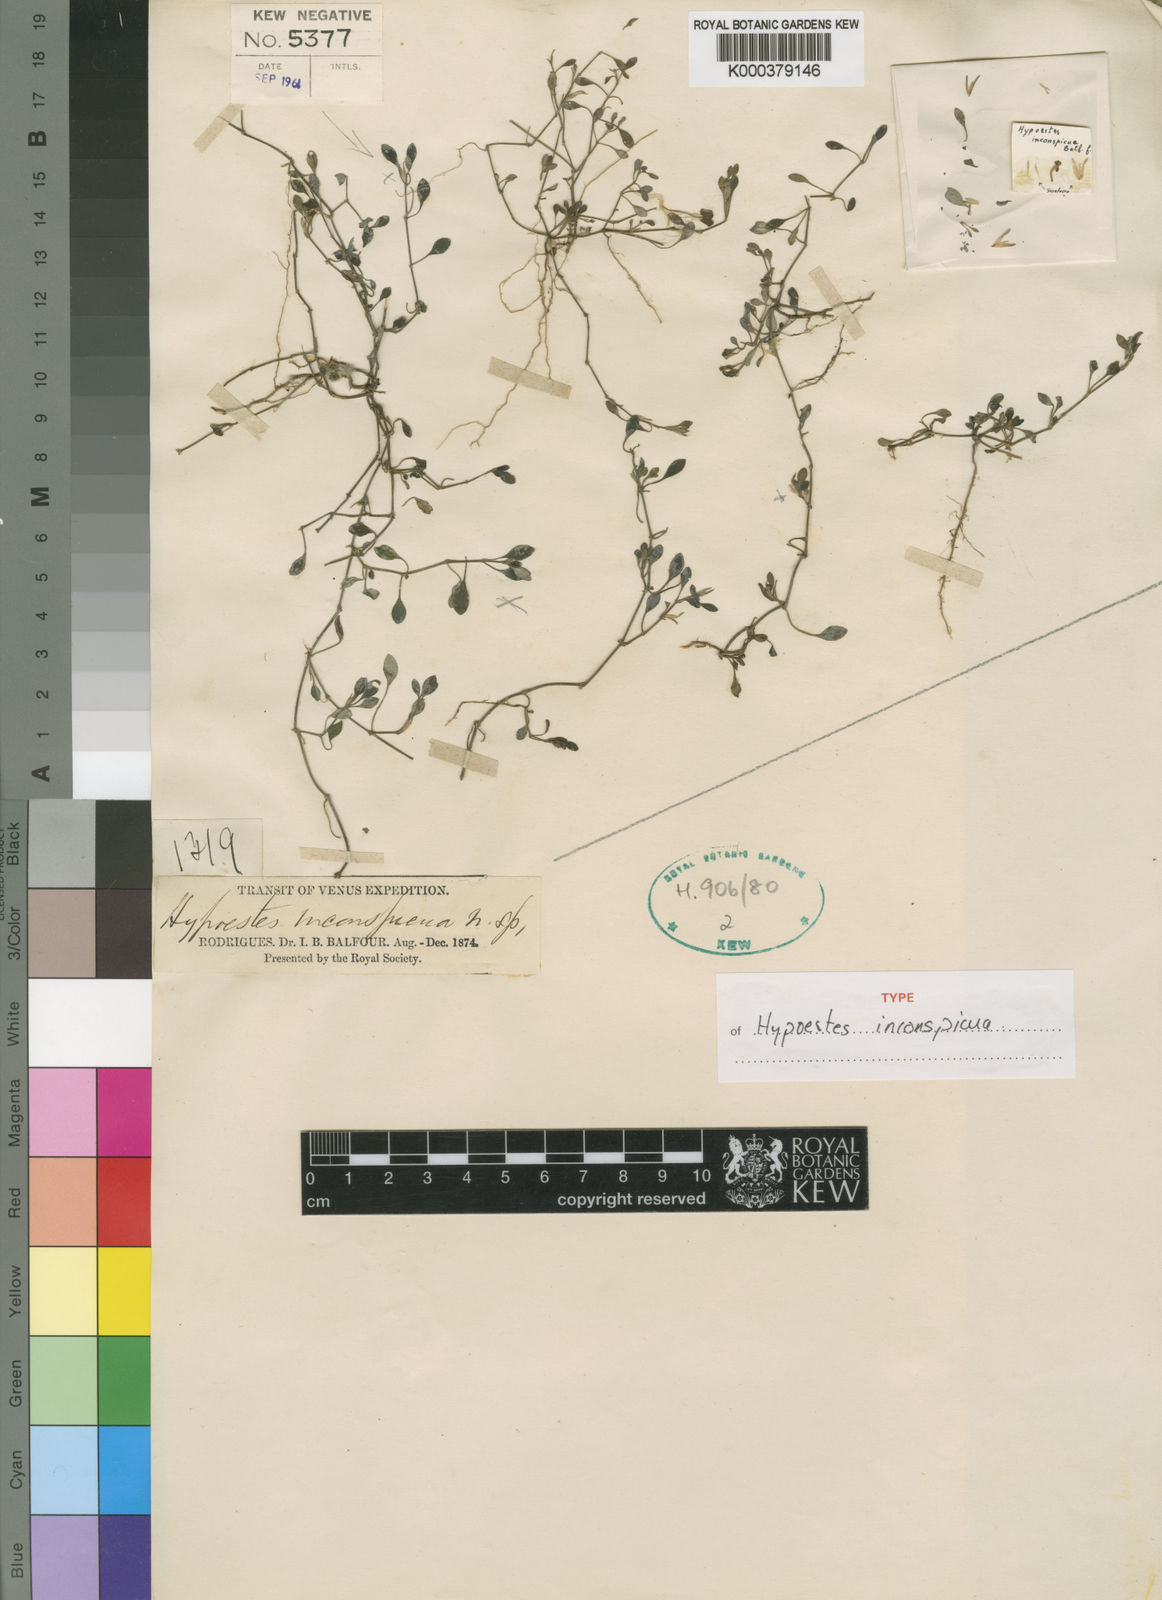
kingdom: Plantae
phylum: Tracheophyta
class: Magnoliopsida
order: Lamiales
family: Acanthaceae
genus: Hypoestes
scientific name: Hypoestes inconspicua
